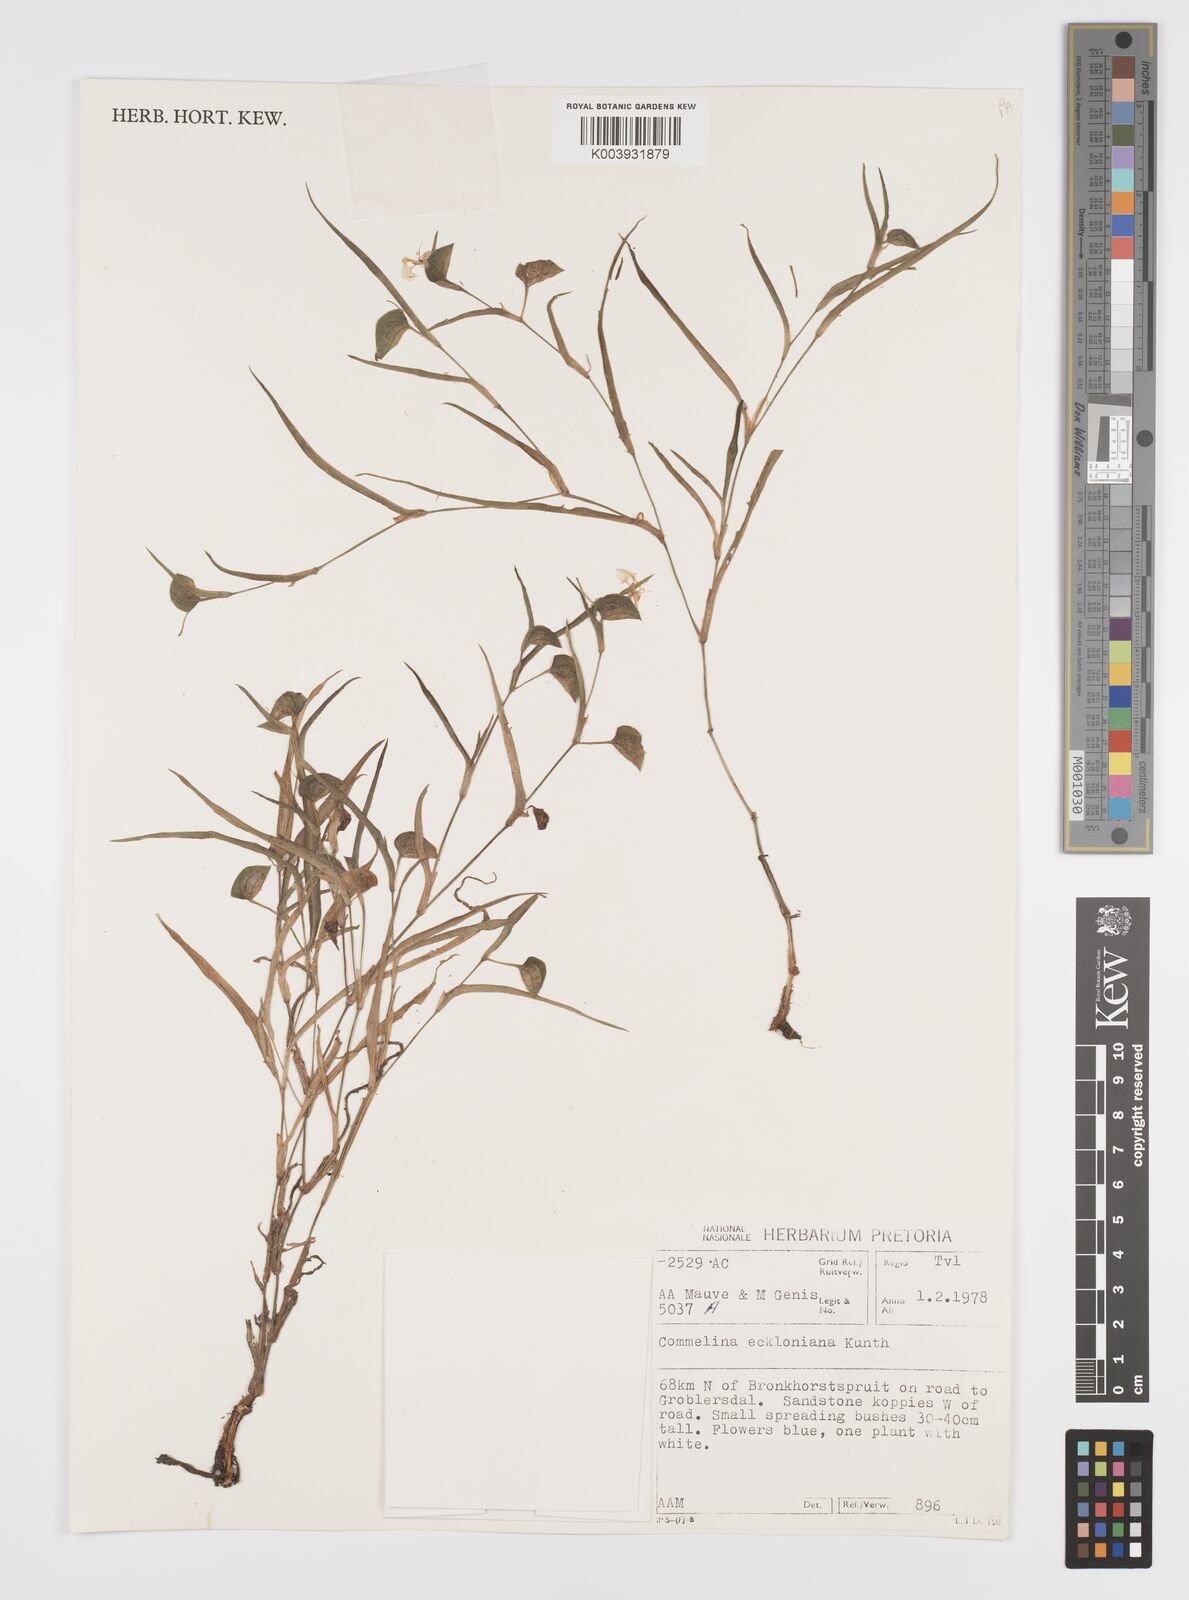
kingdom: Plantae
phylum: Tracheophyta
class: Liliopsida
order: Commelinales
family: Commelinaceae
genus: Commelina
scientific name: Commelina eckloniana
